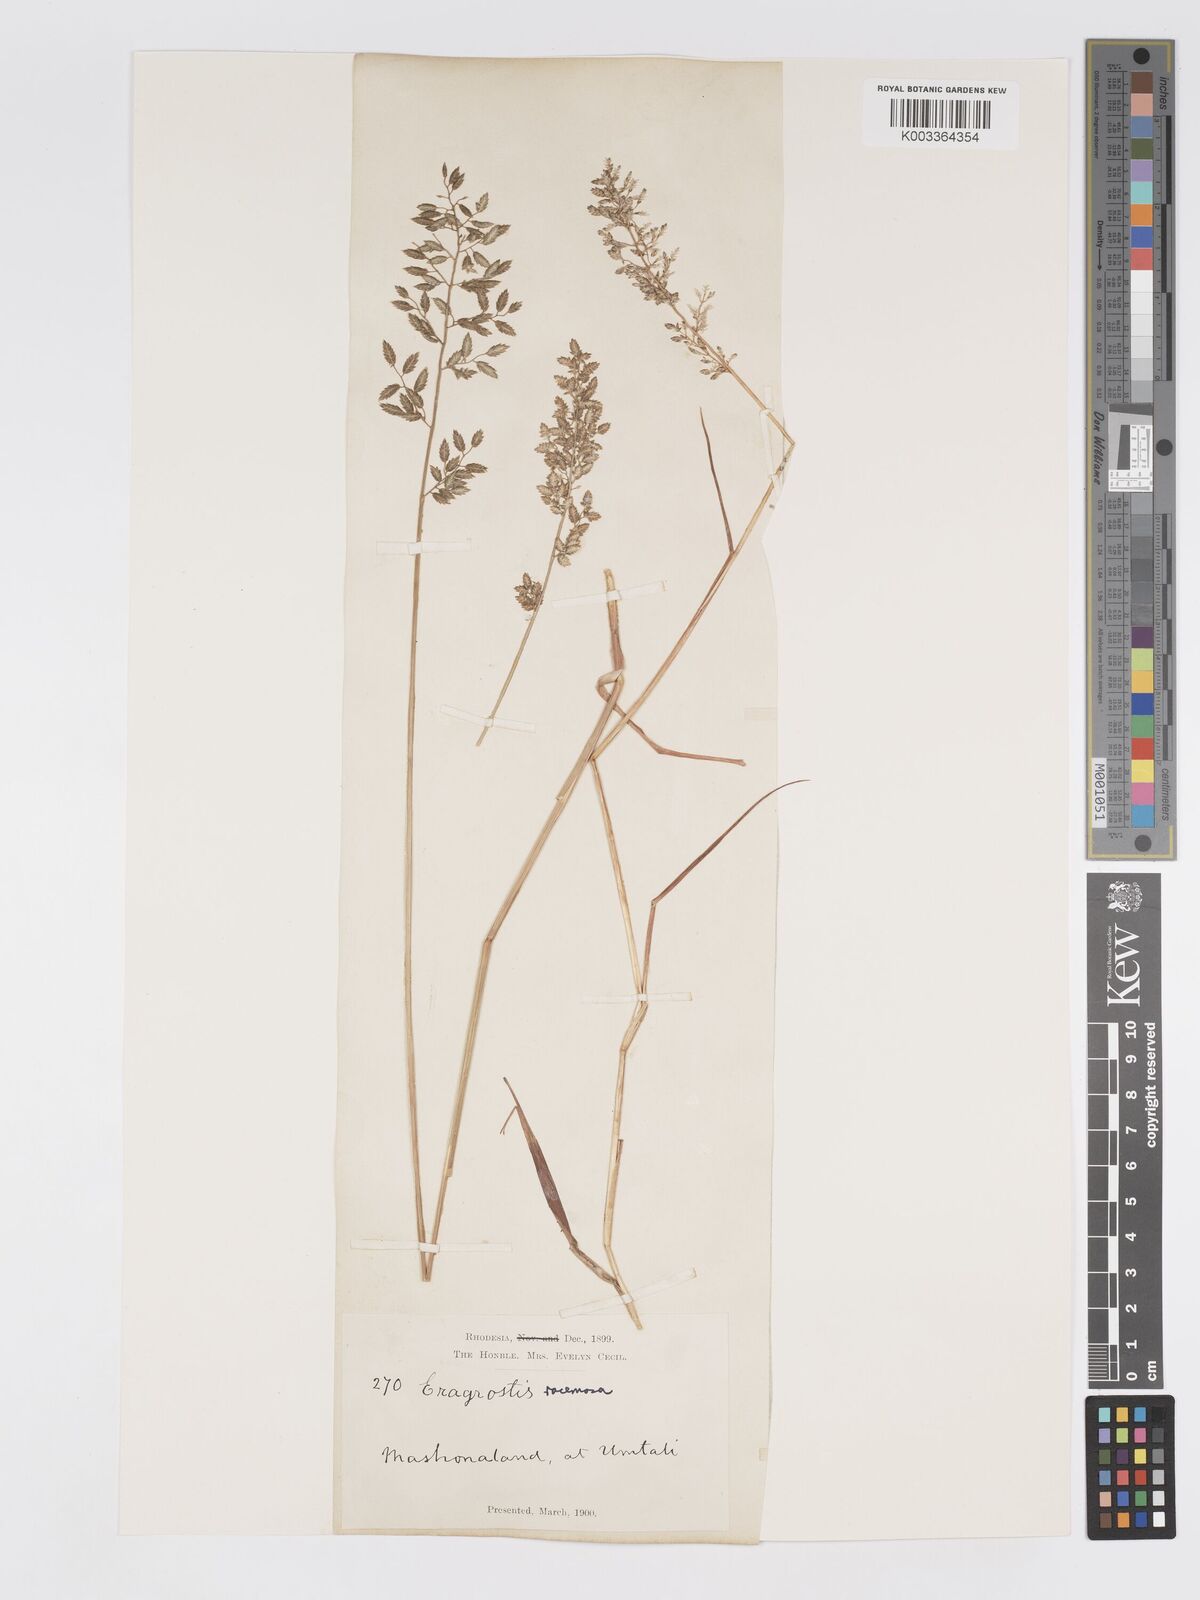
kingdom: Plantae
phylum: Tracheophyta
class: Liliopsida
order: Poales
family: Poaceae
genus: Eragrostis
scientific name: Eragrostis racemosa
